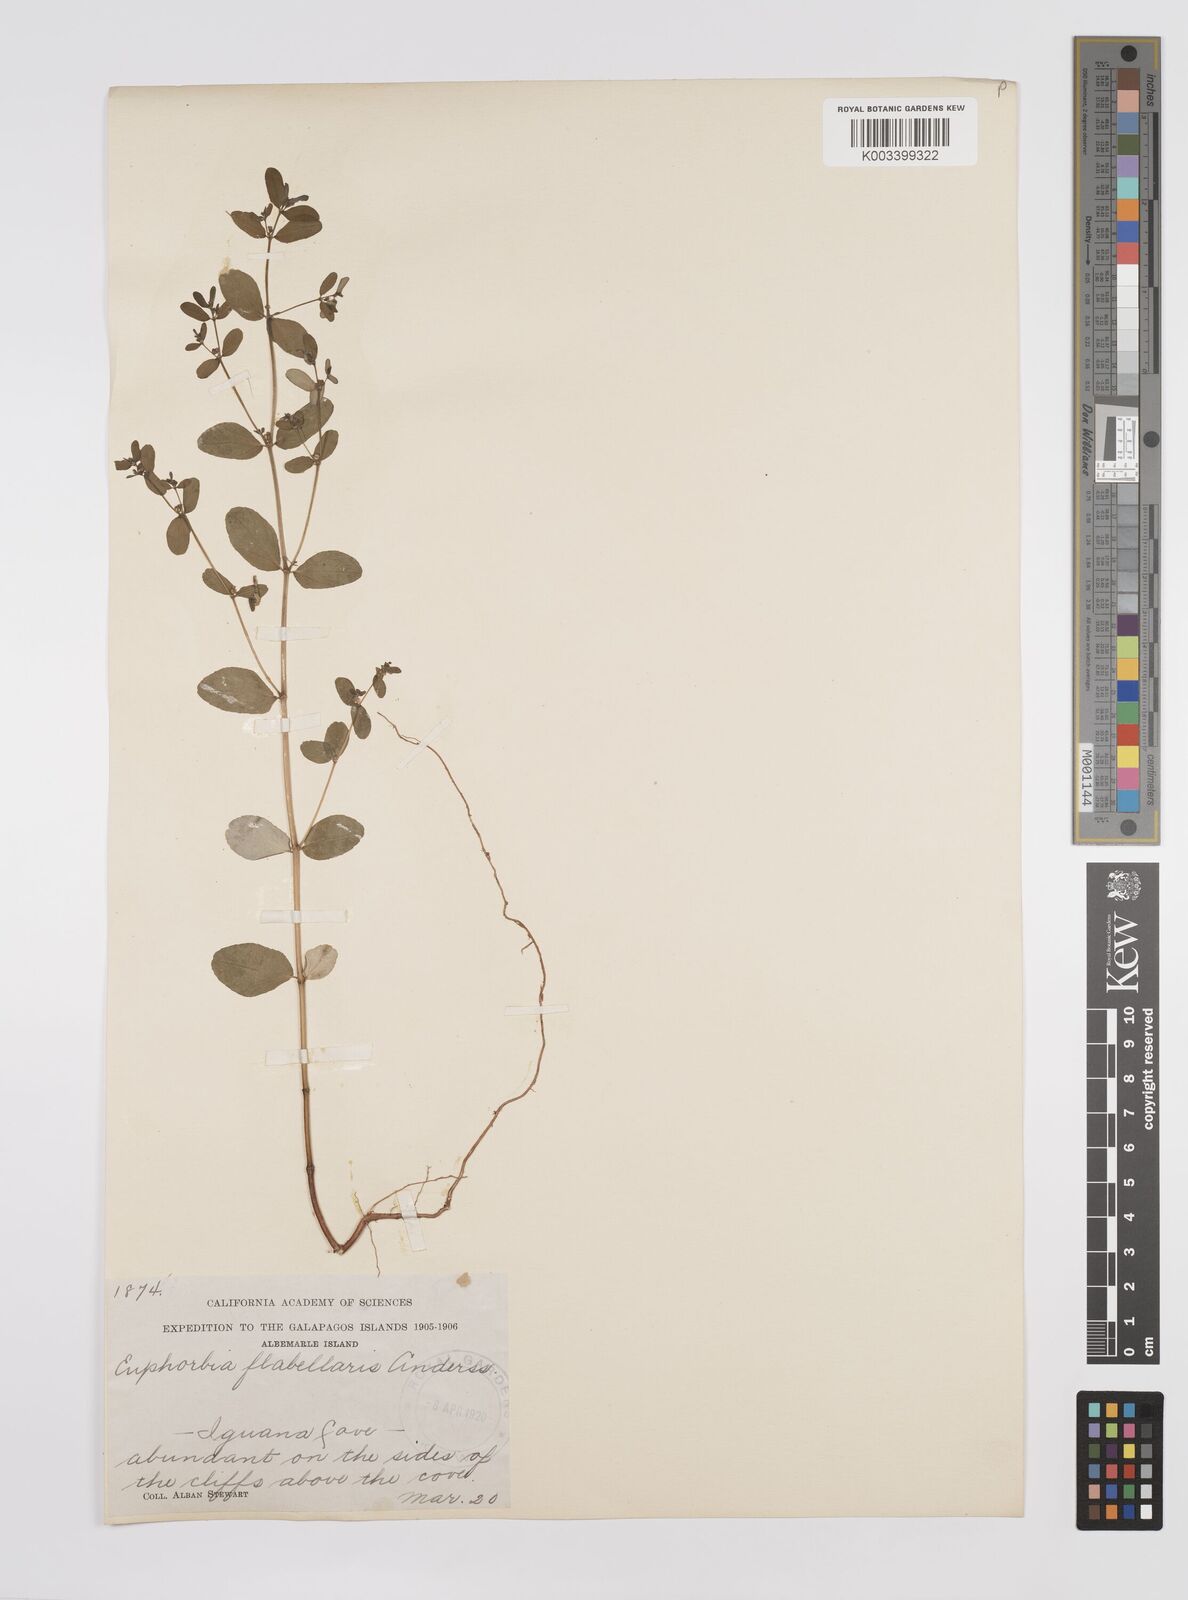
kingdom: Plantae
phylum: Tracheophyta
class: Magnoliopsida
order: Malpighiales
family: Euphorbiaceae
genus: Euphorbia
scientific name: Euphorbia recurva
